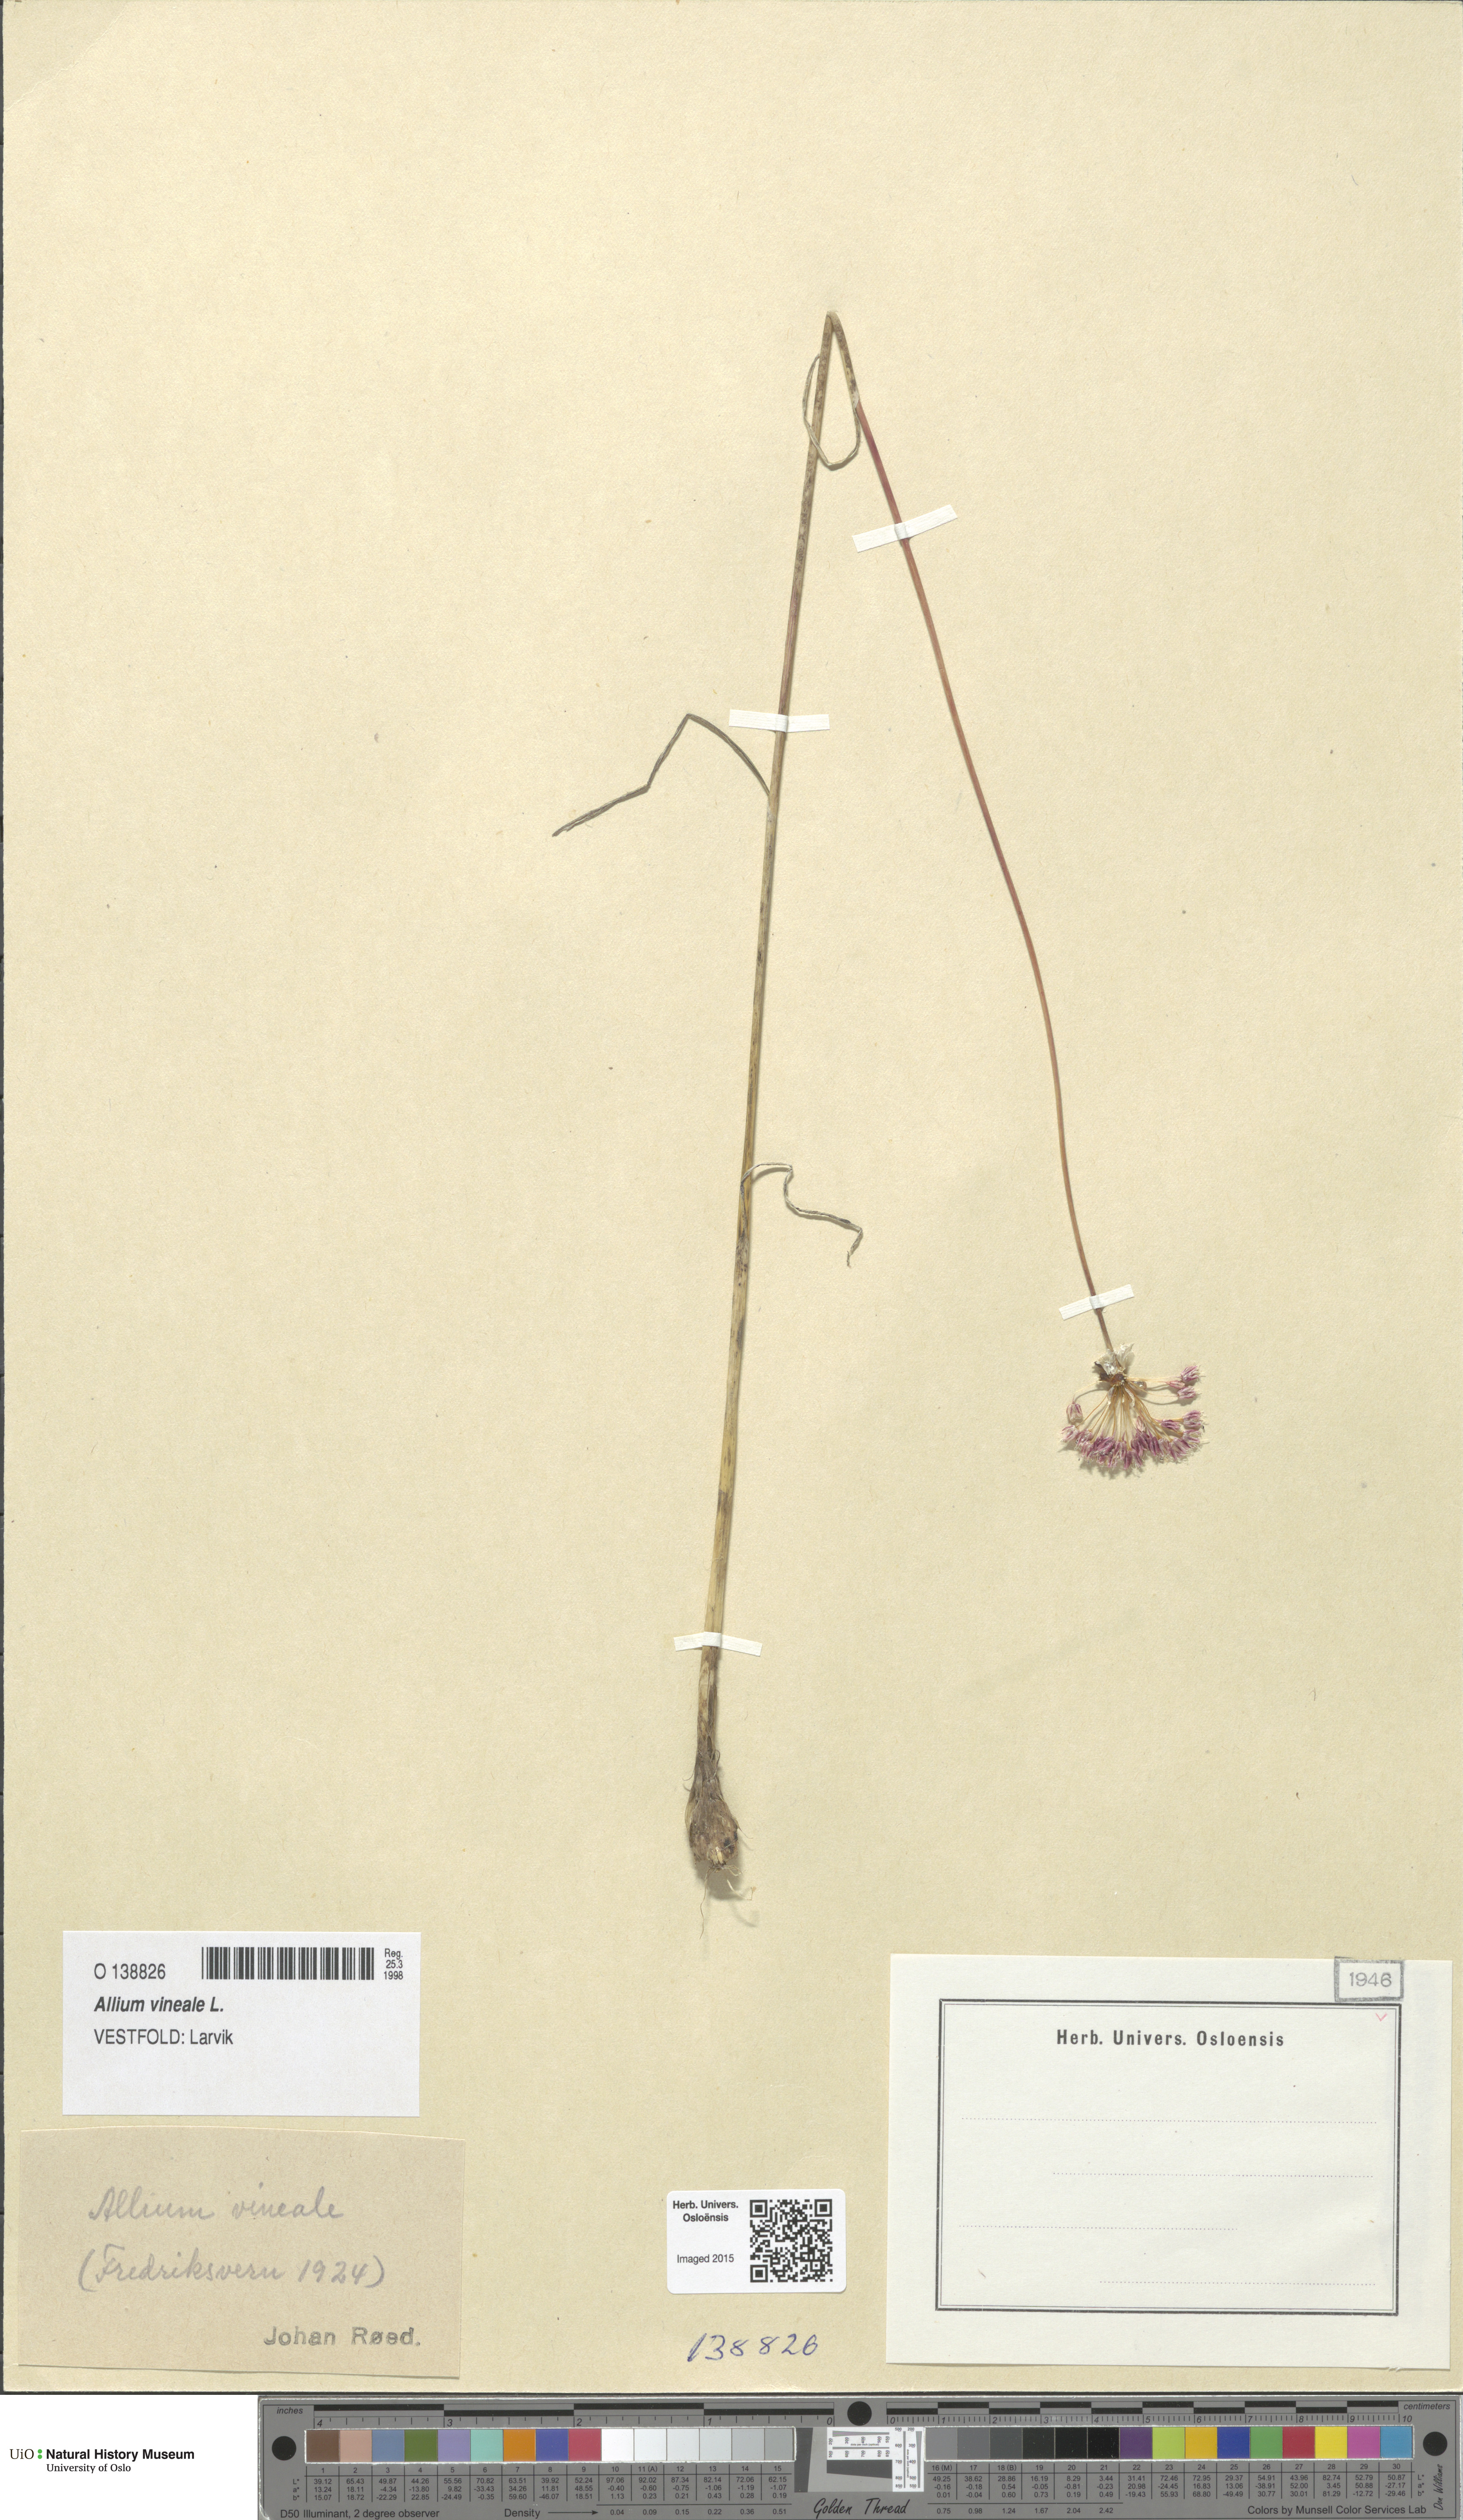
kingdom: Plantae
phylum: Tracheophyta
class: Liliopsida
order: Asparagales
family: Amaryllidaceae
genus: Allium
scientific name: Allium vineale
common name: Crow garlic
